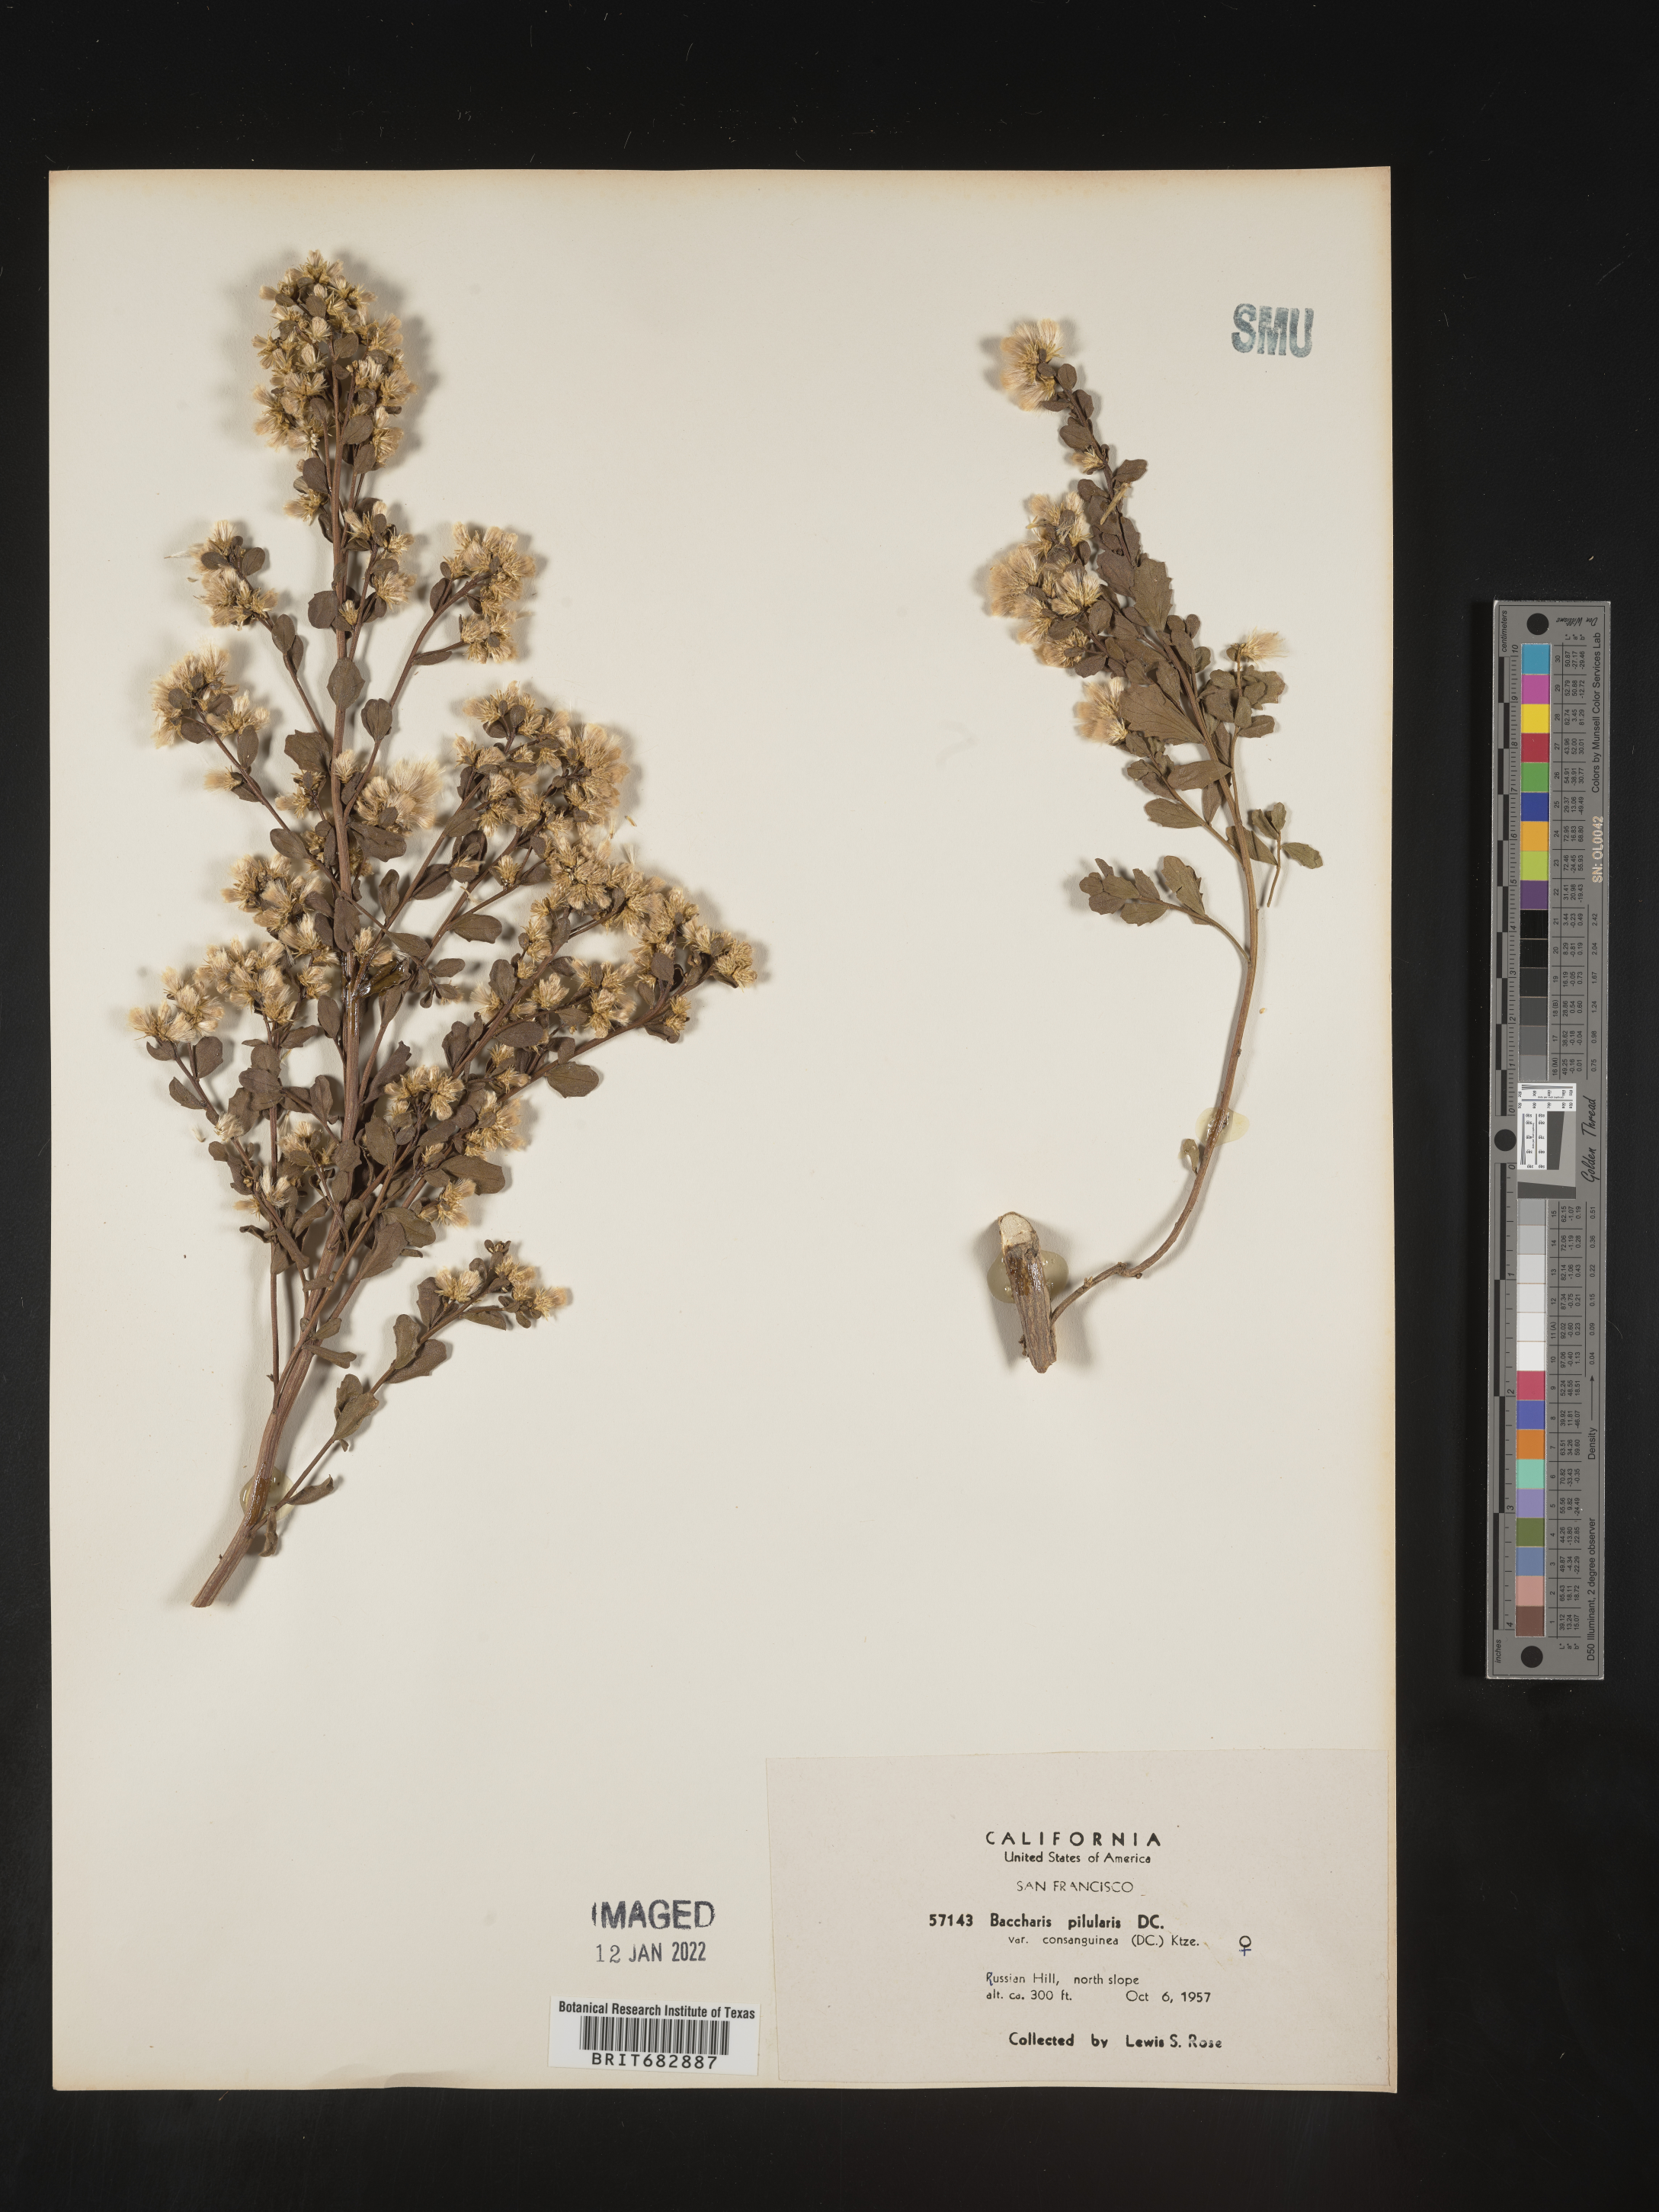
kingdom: Plantae
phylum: Tracheophyta
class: Magnoliopsida
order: Asterales
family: Asteraceae
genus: Baccharis
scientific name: Baccharis pilularis
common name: Coyotebrush
